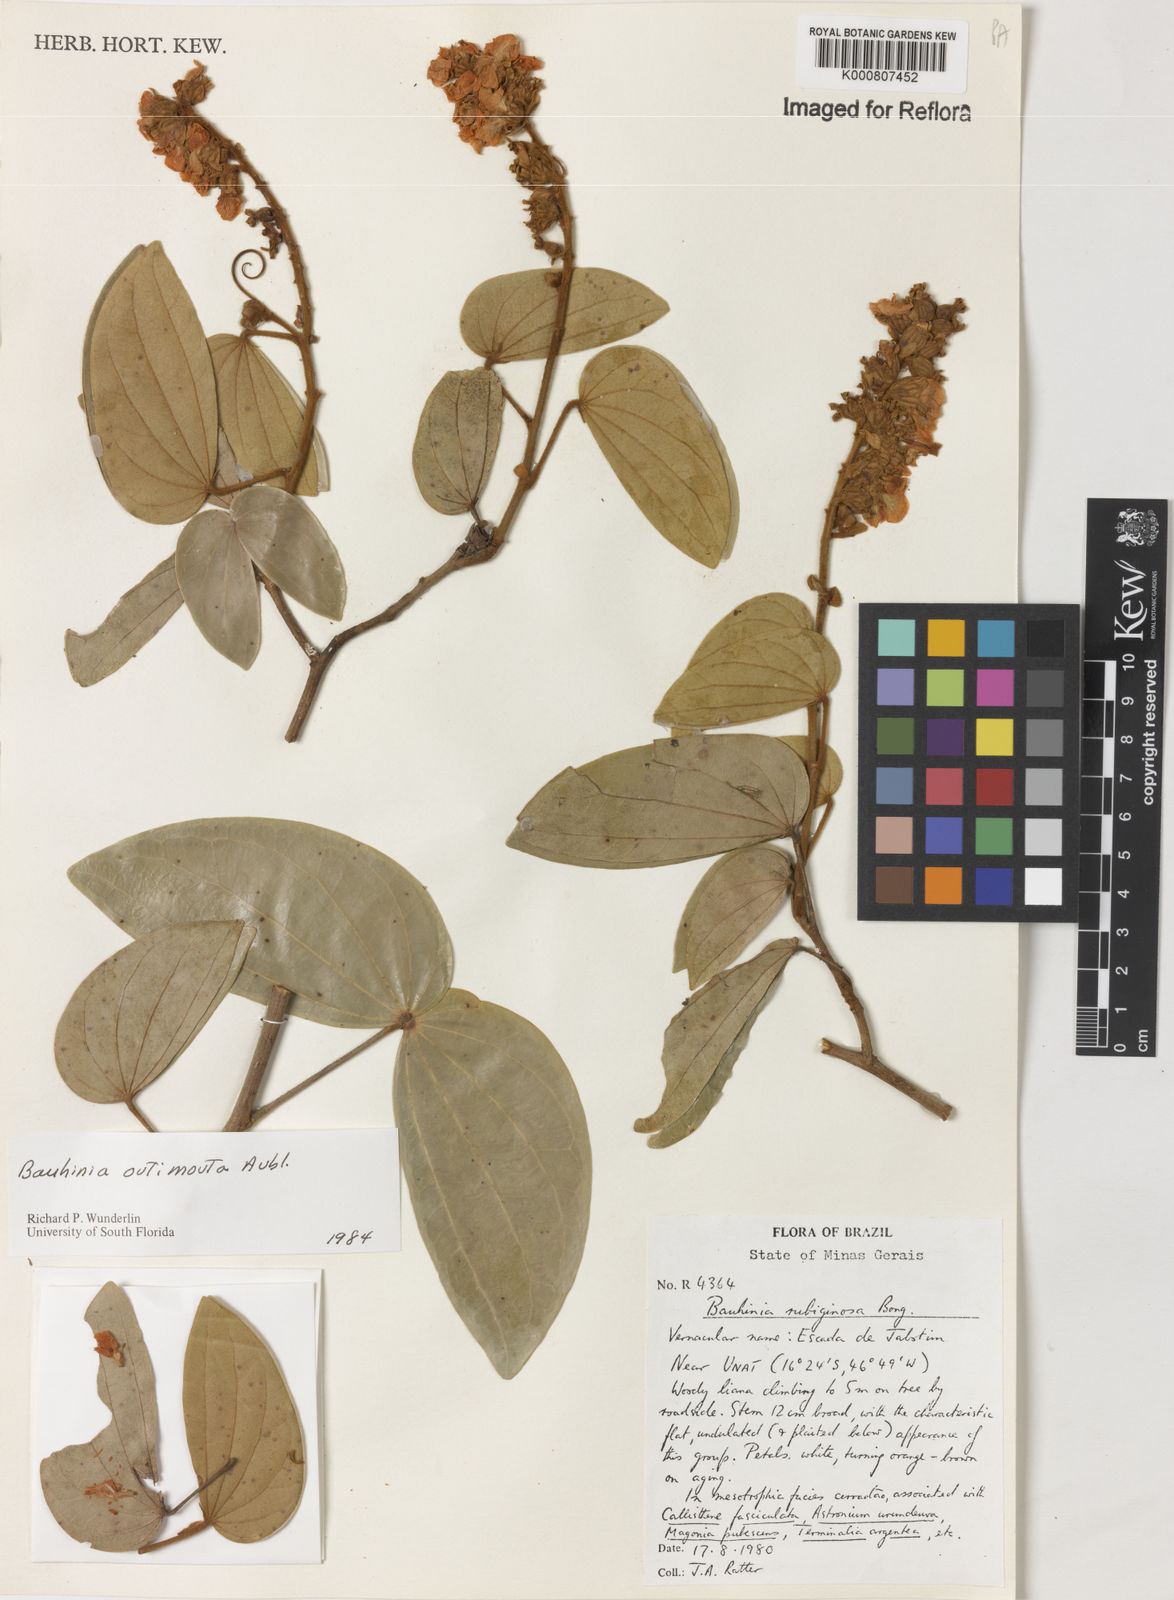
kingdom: Plantae
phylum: Tracheophyta
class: Magnoliopsida
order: Fabales
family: Fabaceae
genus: Schnella
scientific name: Schnella outimouta
